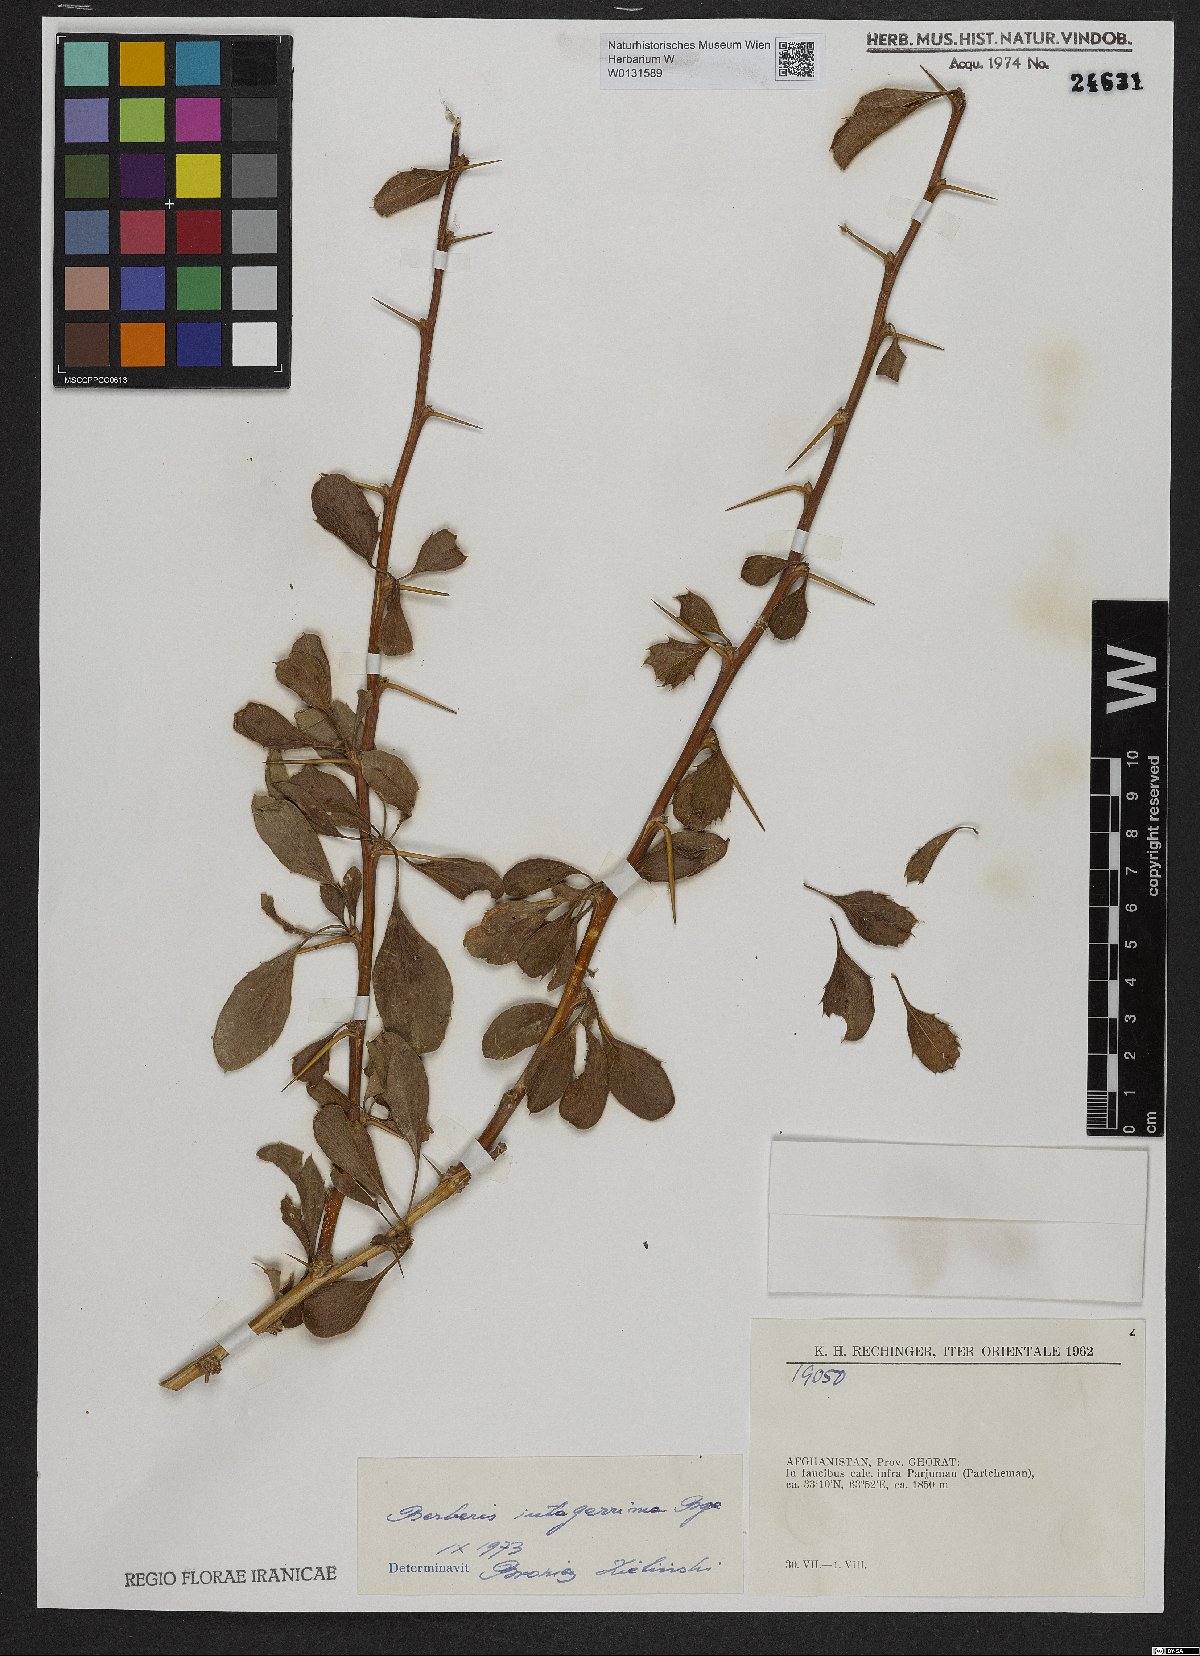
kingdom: Plantae
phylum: Tracheophyta
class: Magnoliopsida
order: Ranunculales
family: Berberidaceae
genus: Berberis
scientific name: Berberis integerrima
